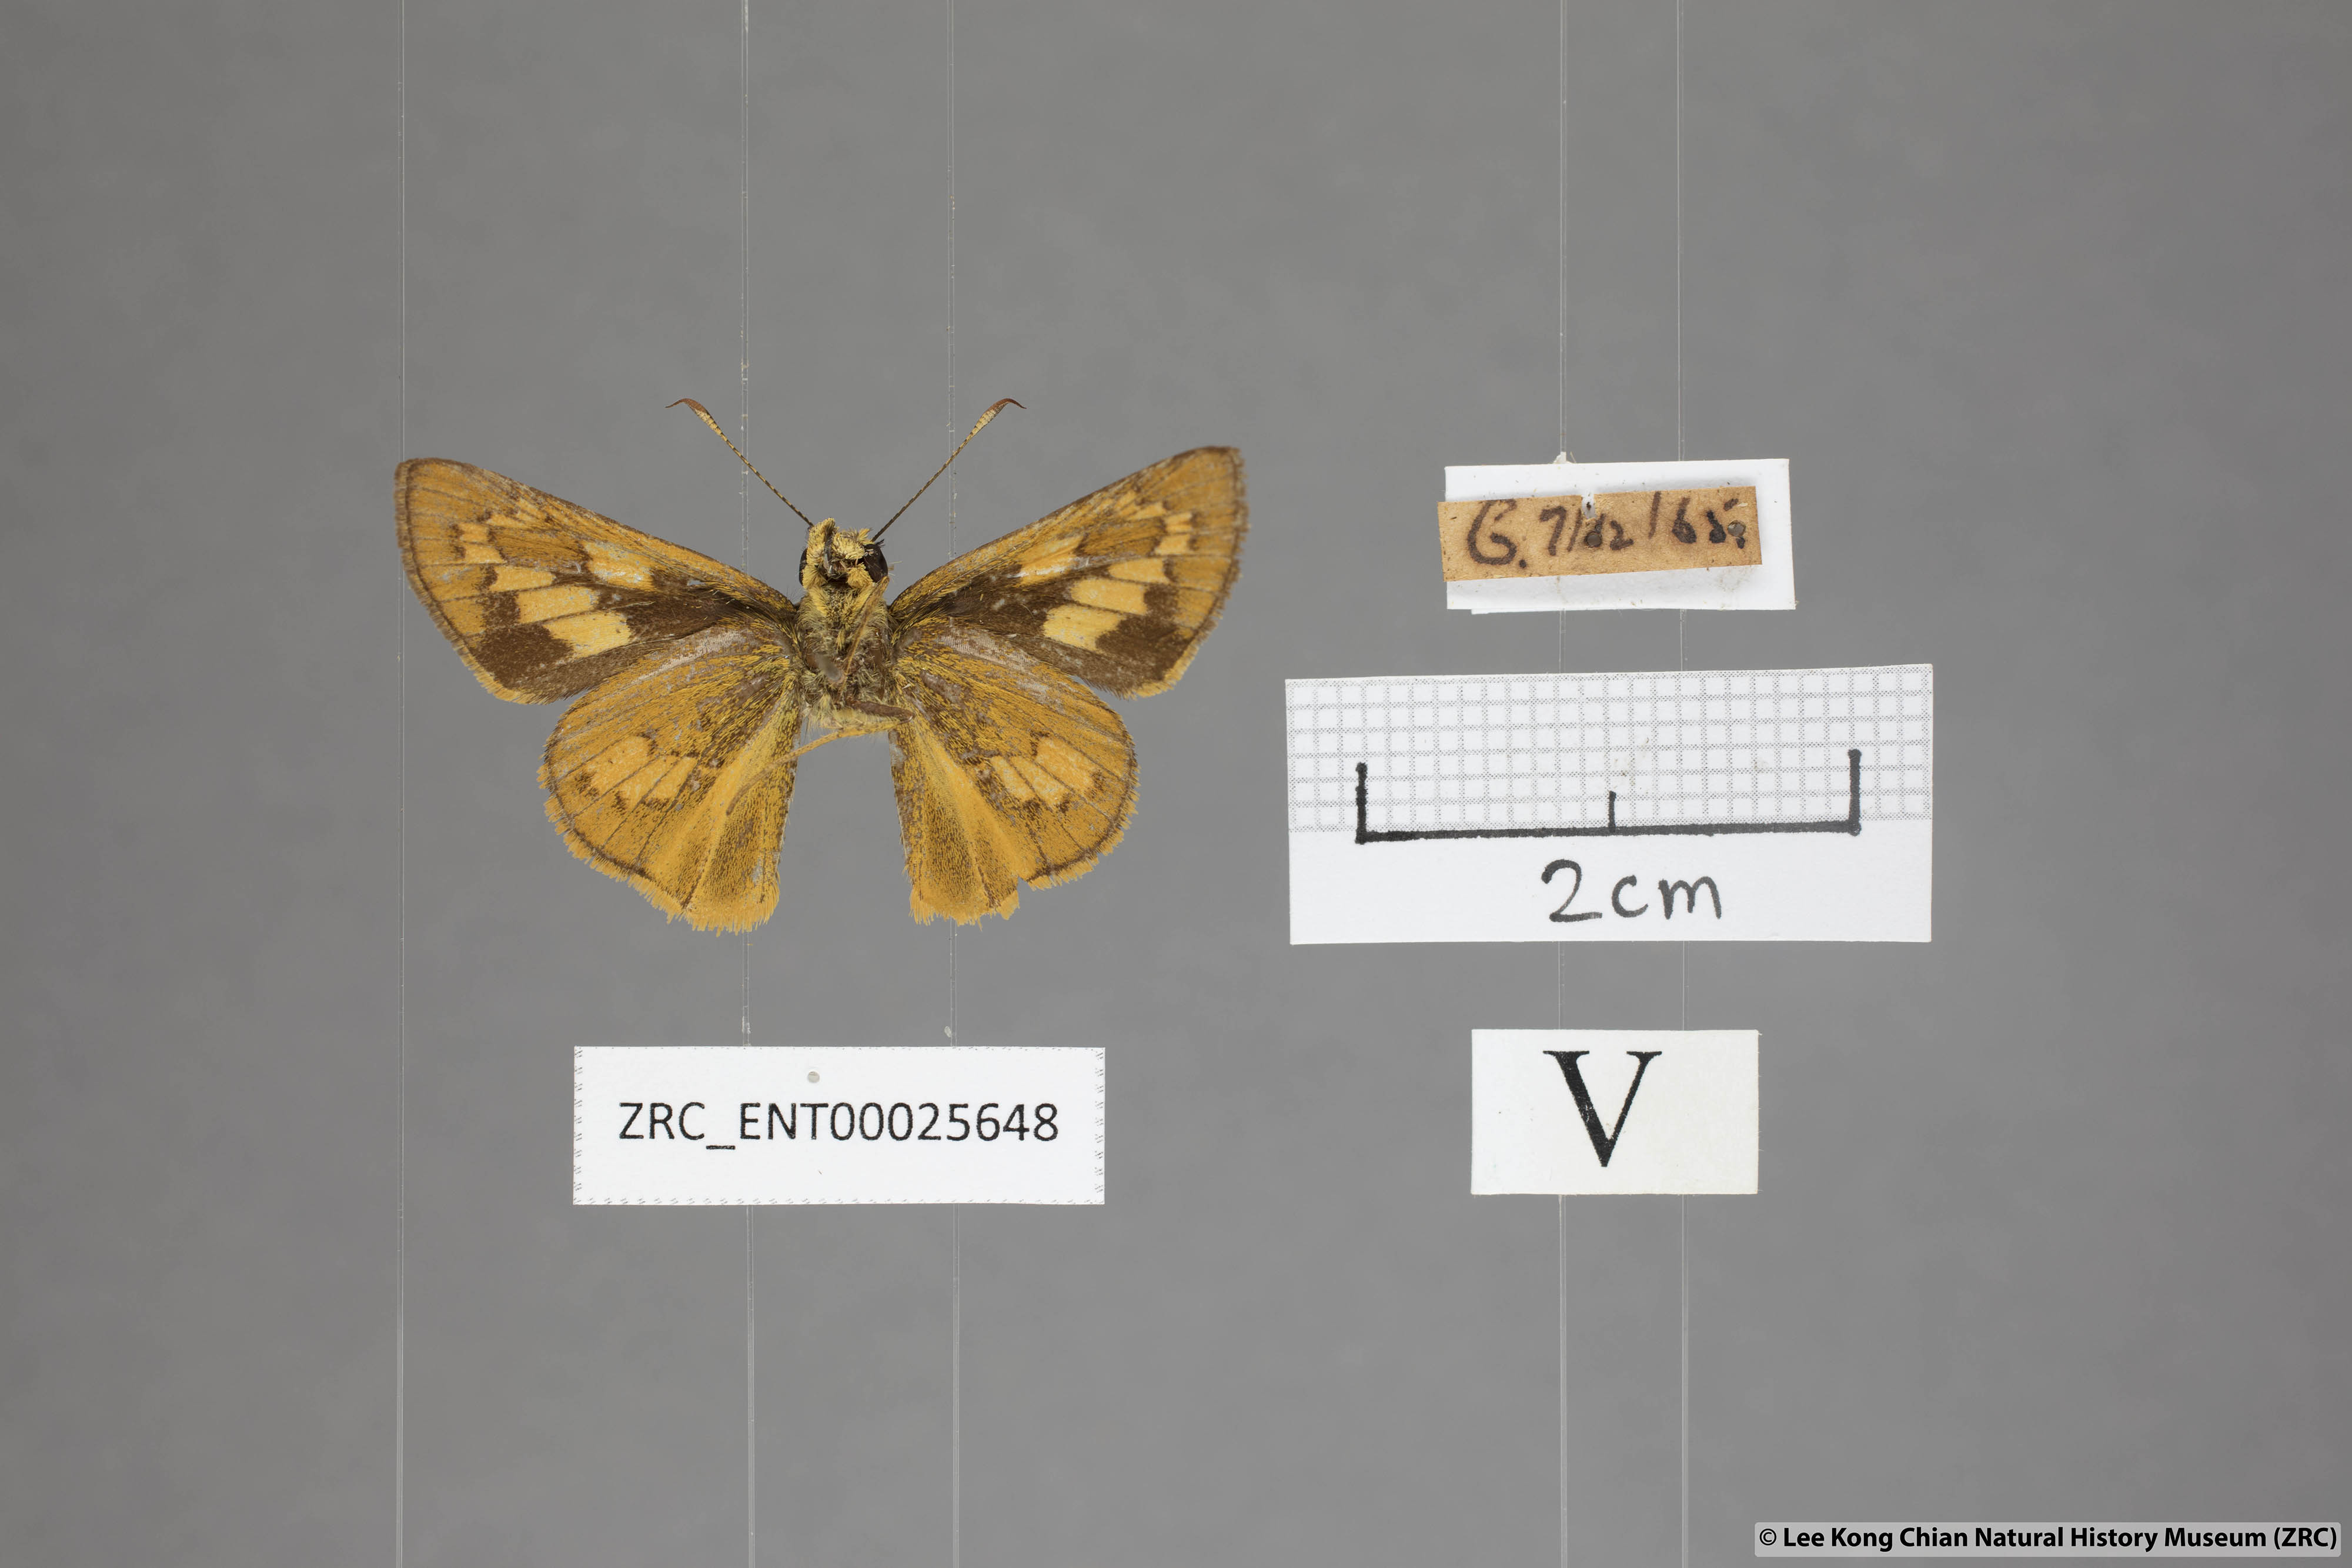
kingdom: Animalia
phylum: Arthropoda
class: Insecta
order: Lepidoptera
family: Hesperiidae
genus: Telicota
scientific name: Telicota besta
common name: Hainan palm dart
